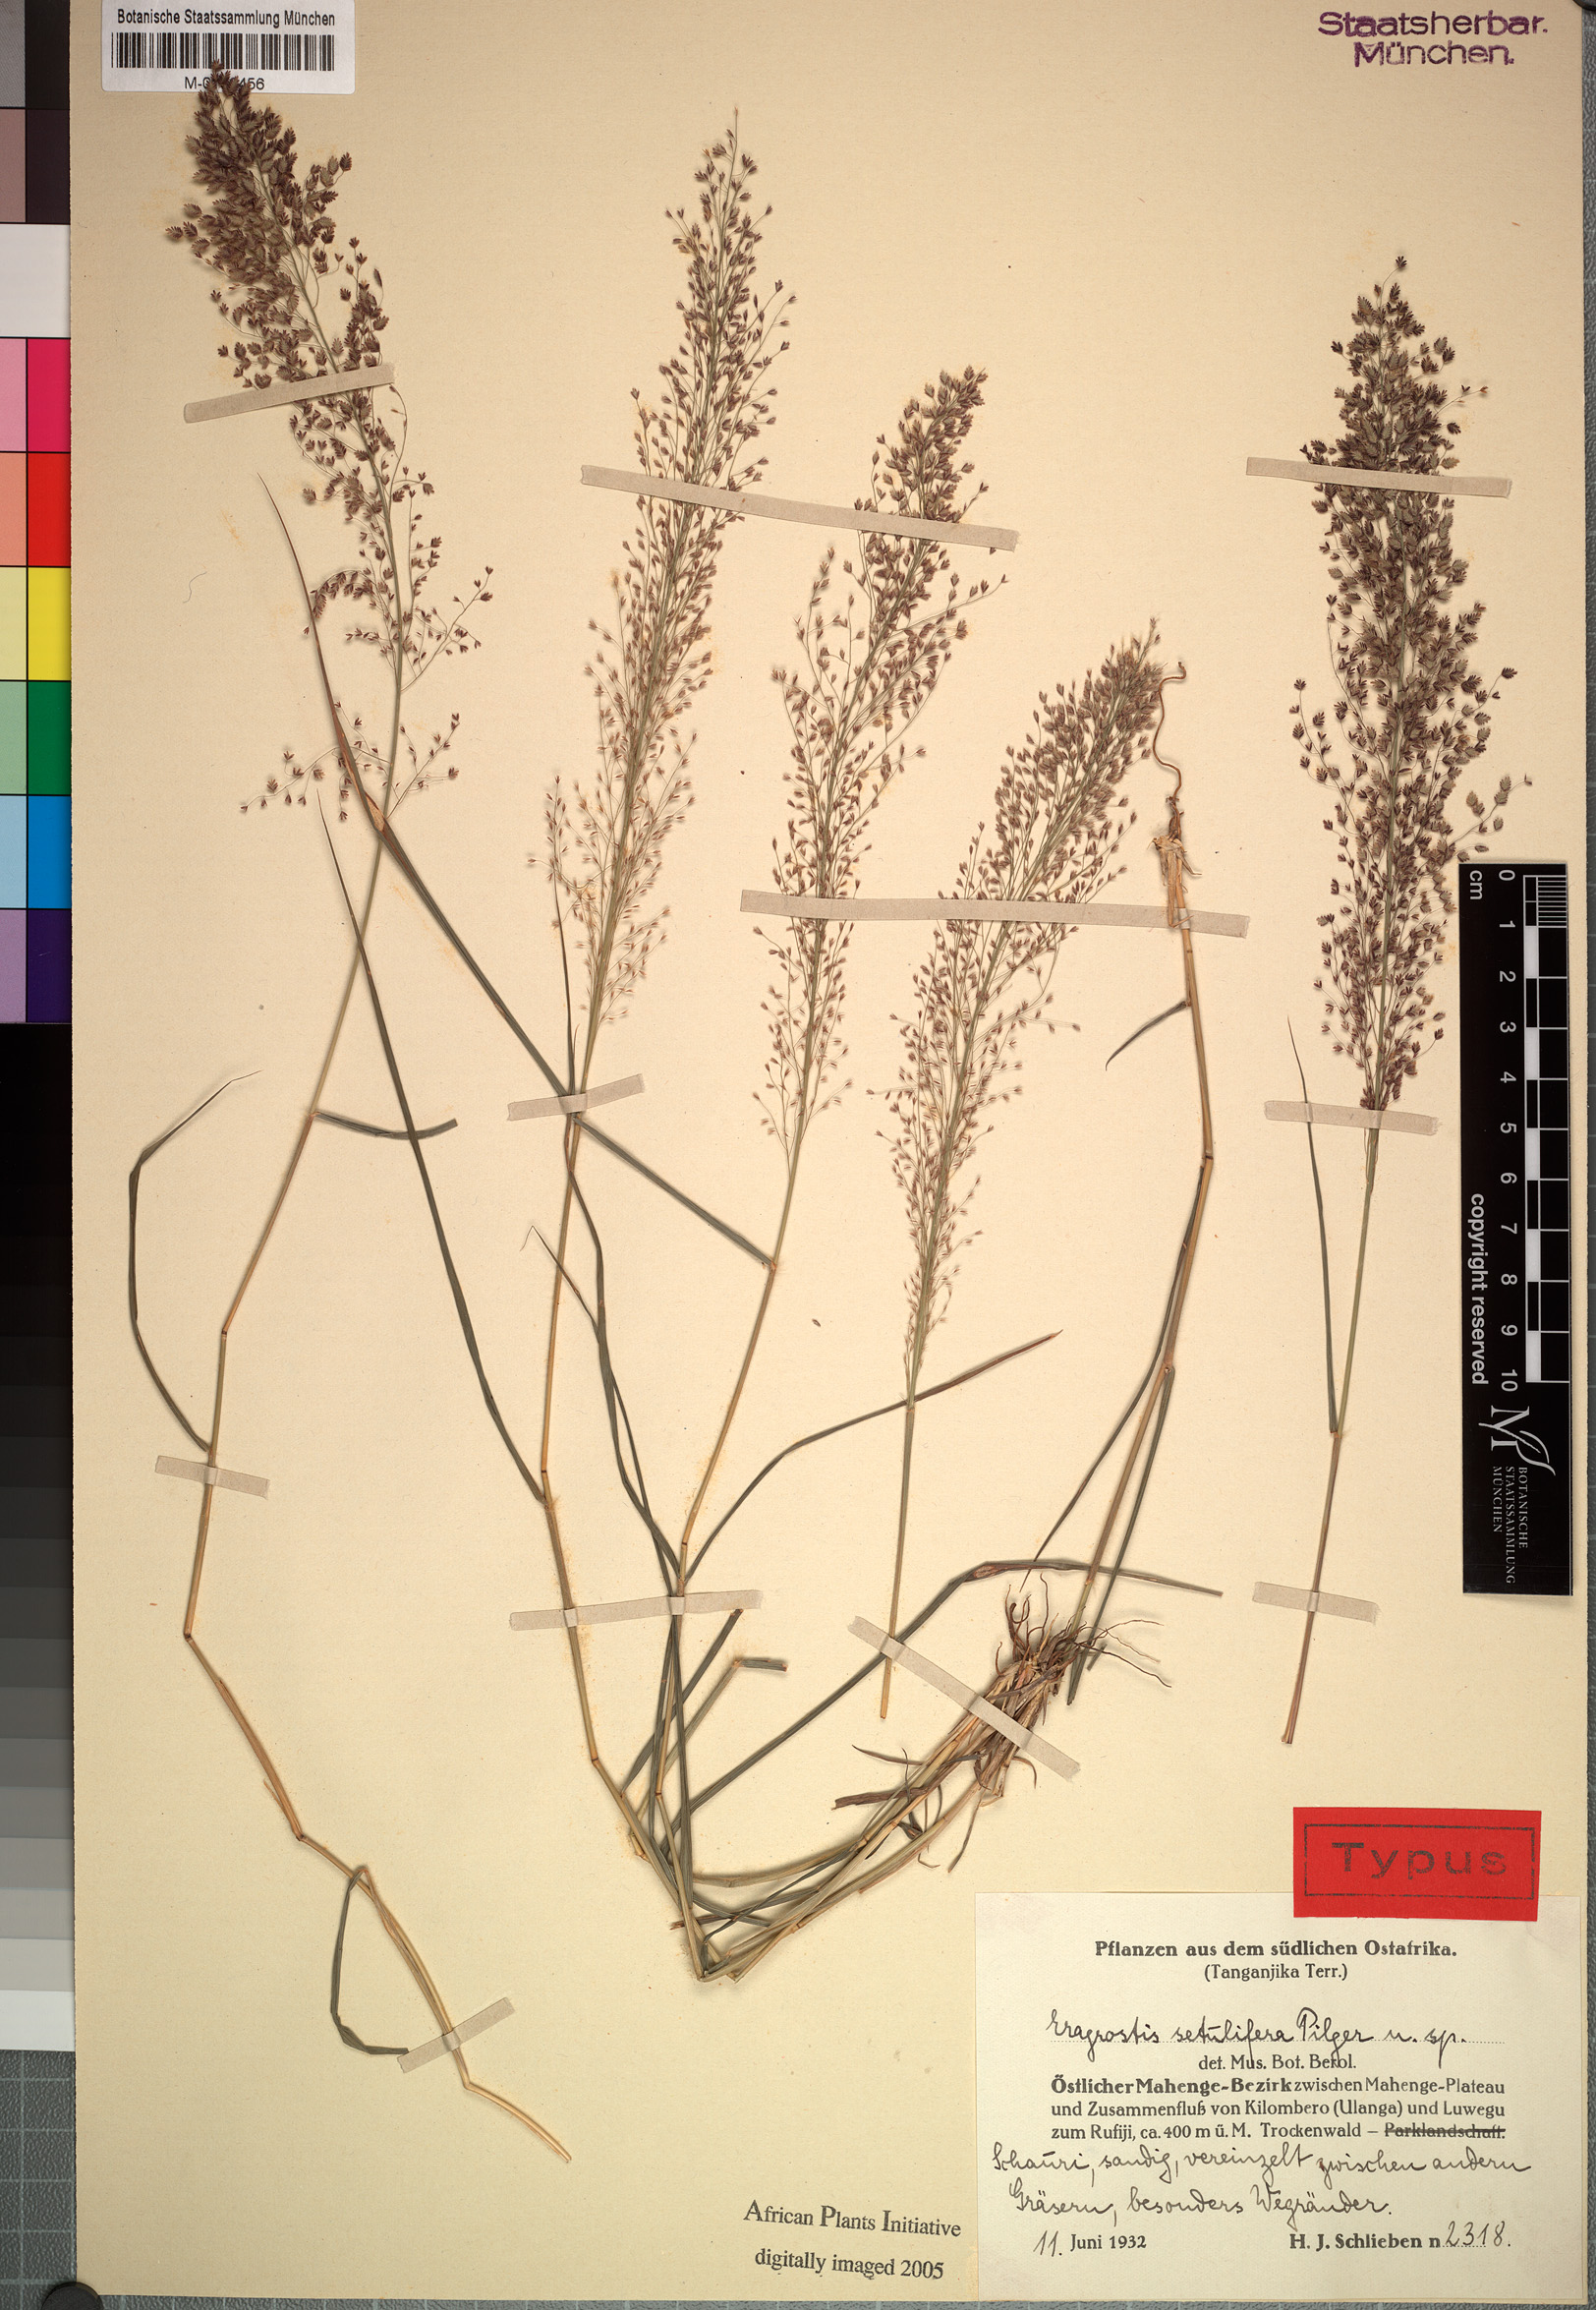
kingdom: Plantae
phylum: Tracheophyta
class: Liliopsida
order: Poales
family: Poaceae
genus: Eragrostis
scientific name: Eragrostis setulifera
